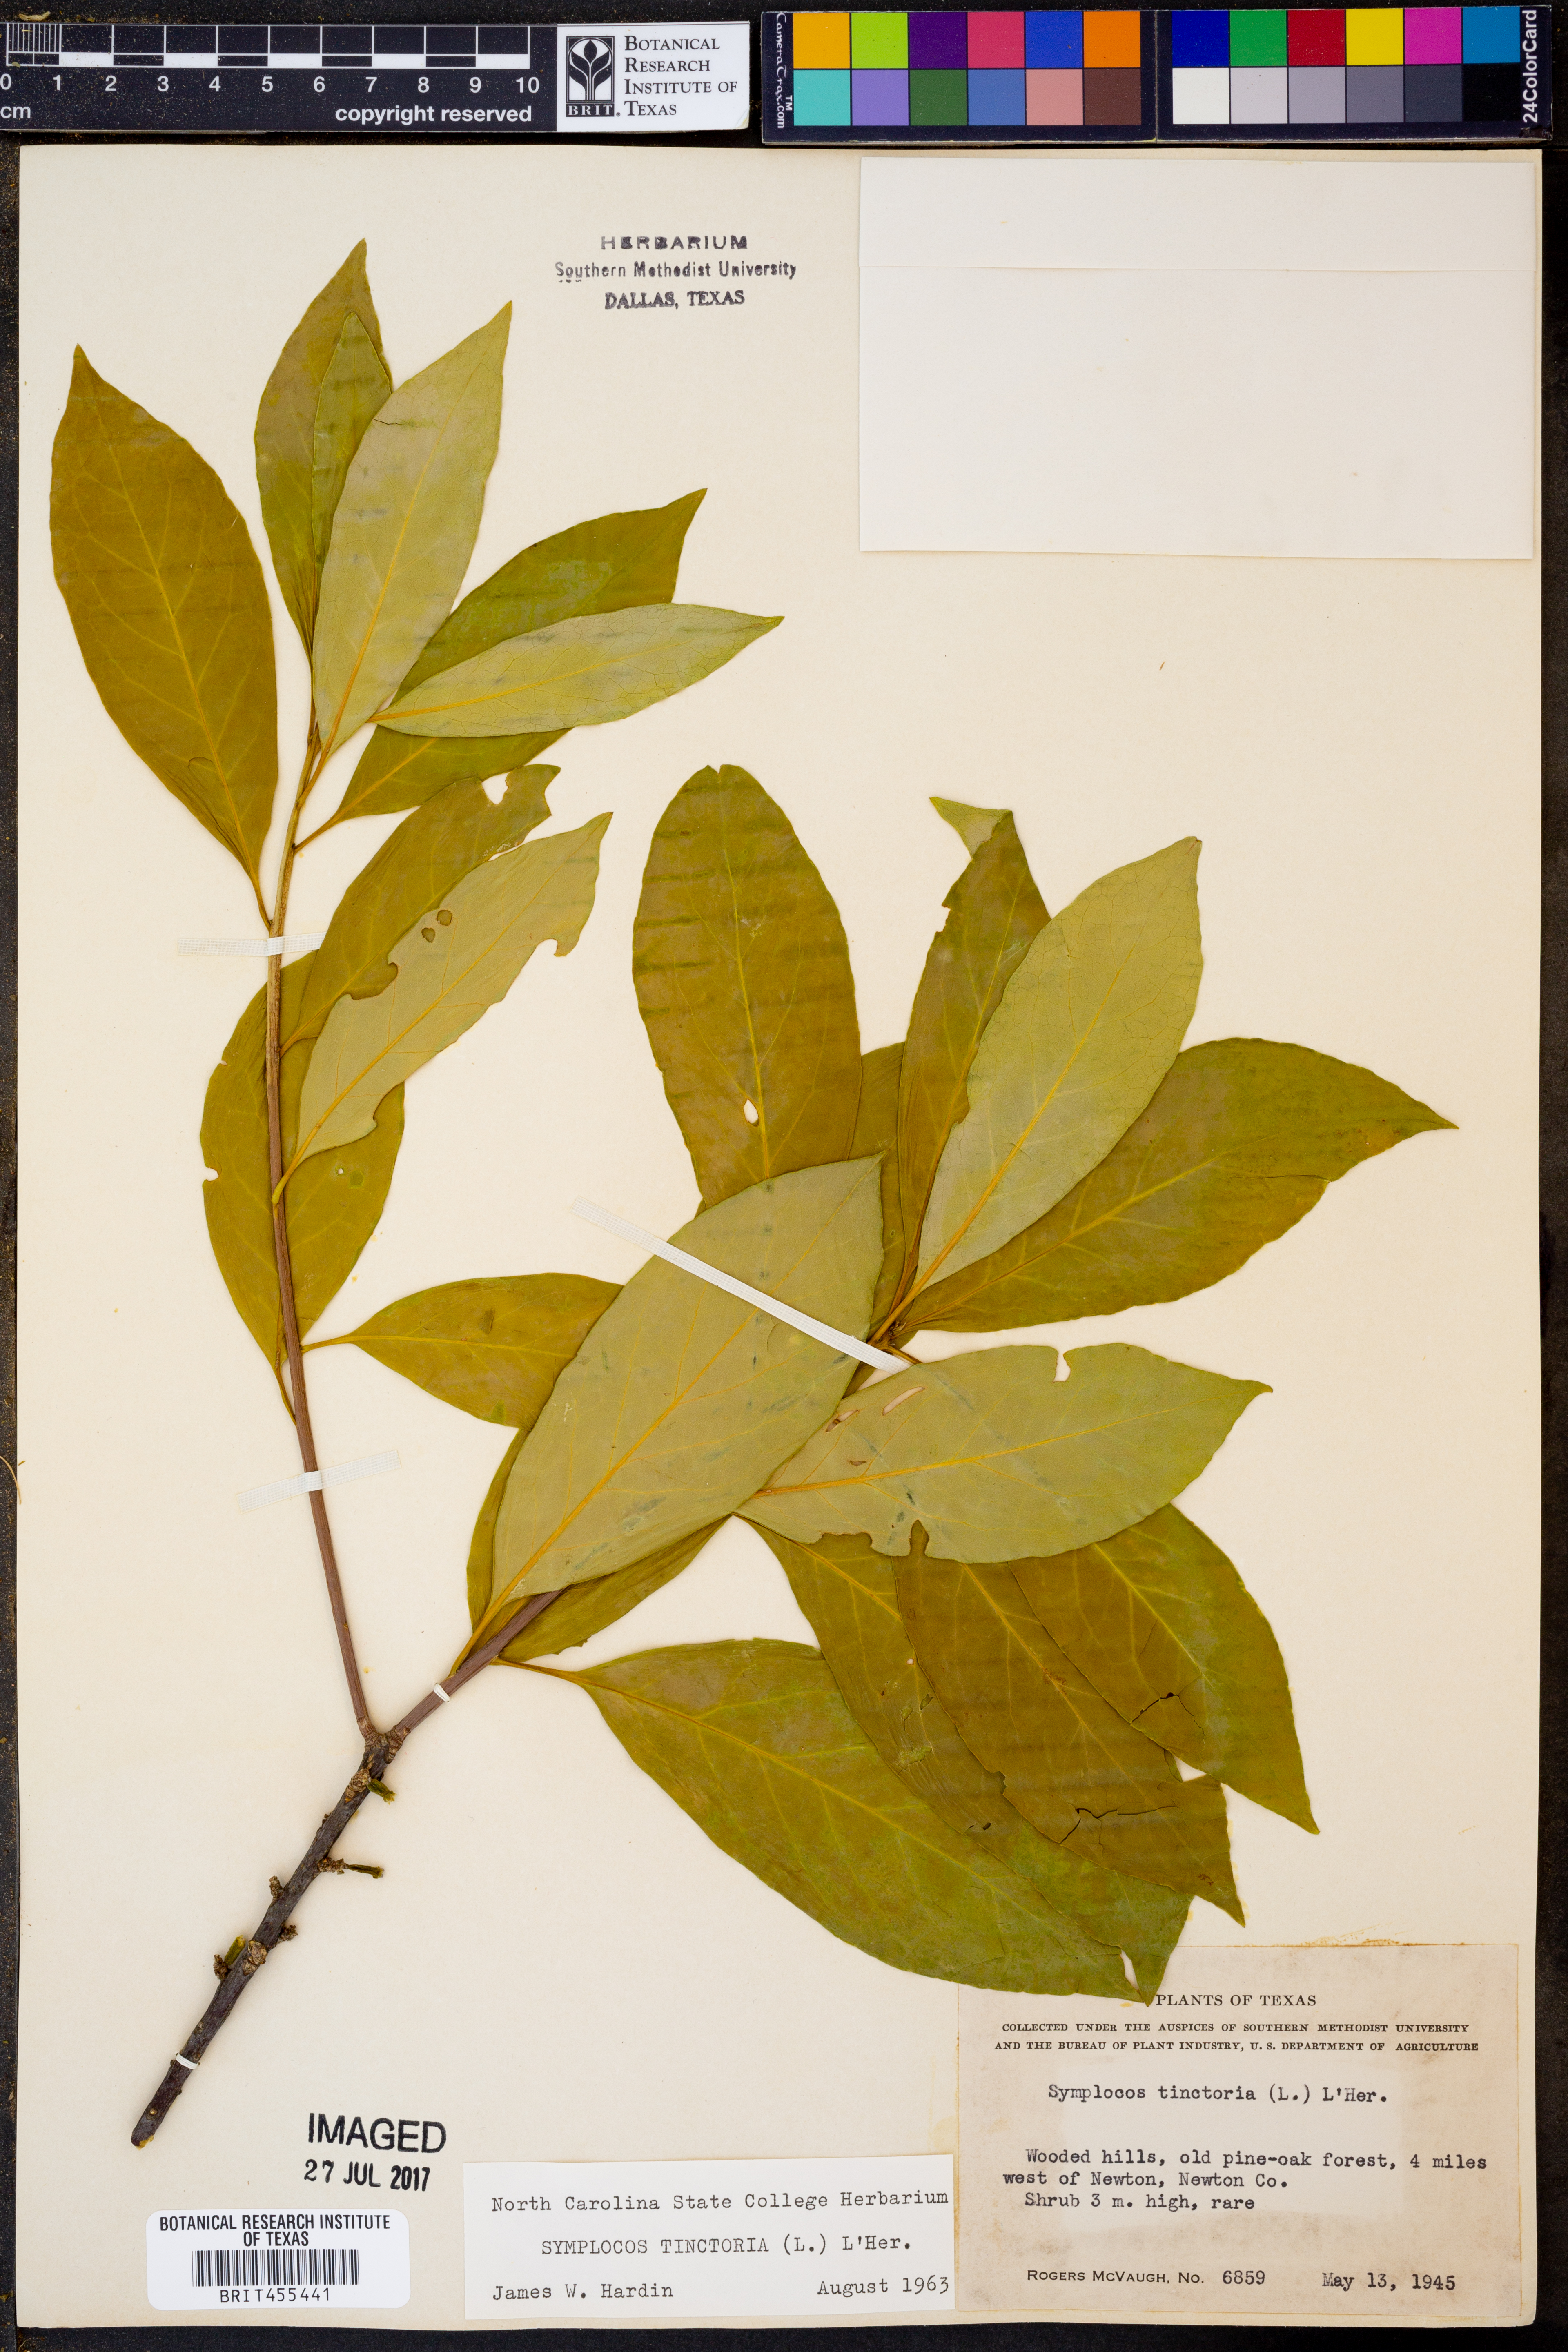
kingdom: Plantae
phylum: Tracheophyta
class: Magnoliopsida
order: Ericales
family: Symplocaceae
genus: Symplocos
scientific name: Symplocos tinctoria
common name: Horse-sugar
